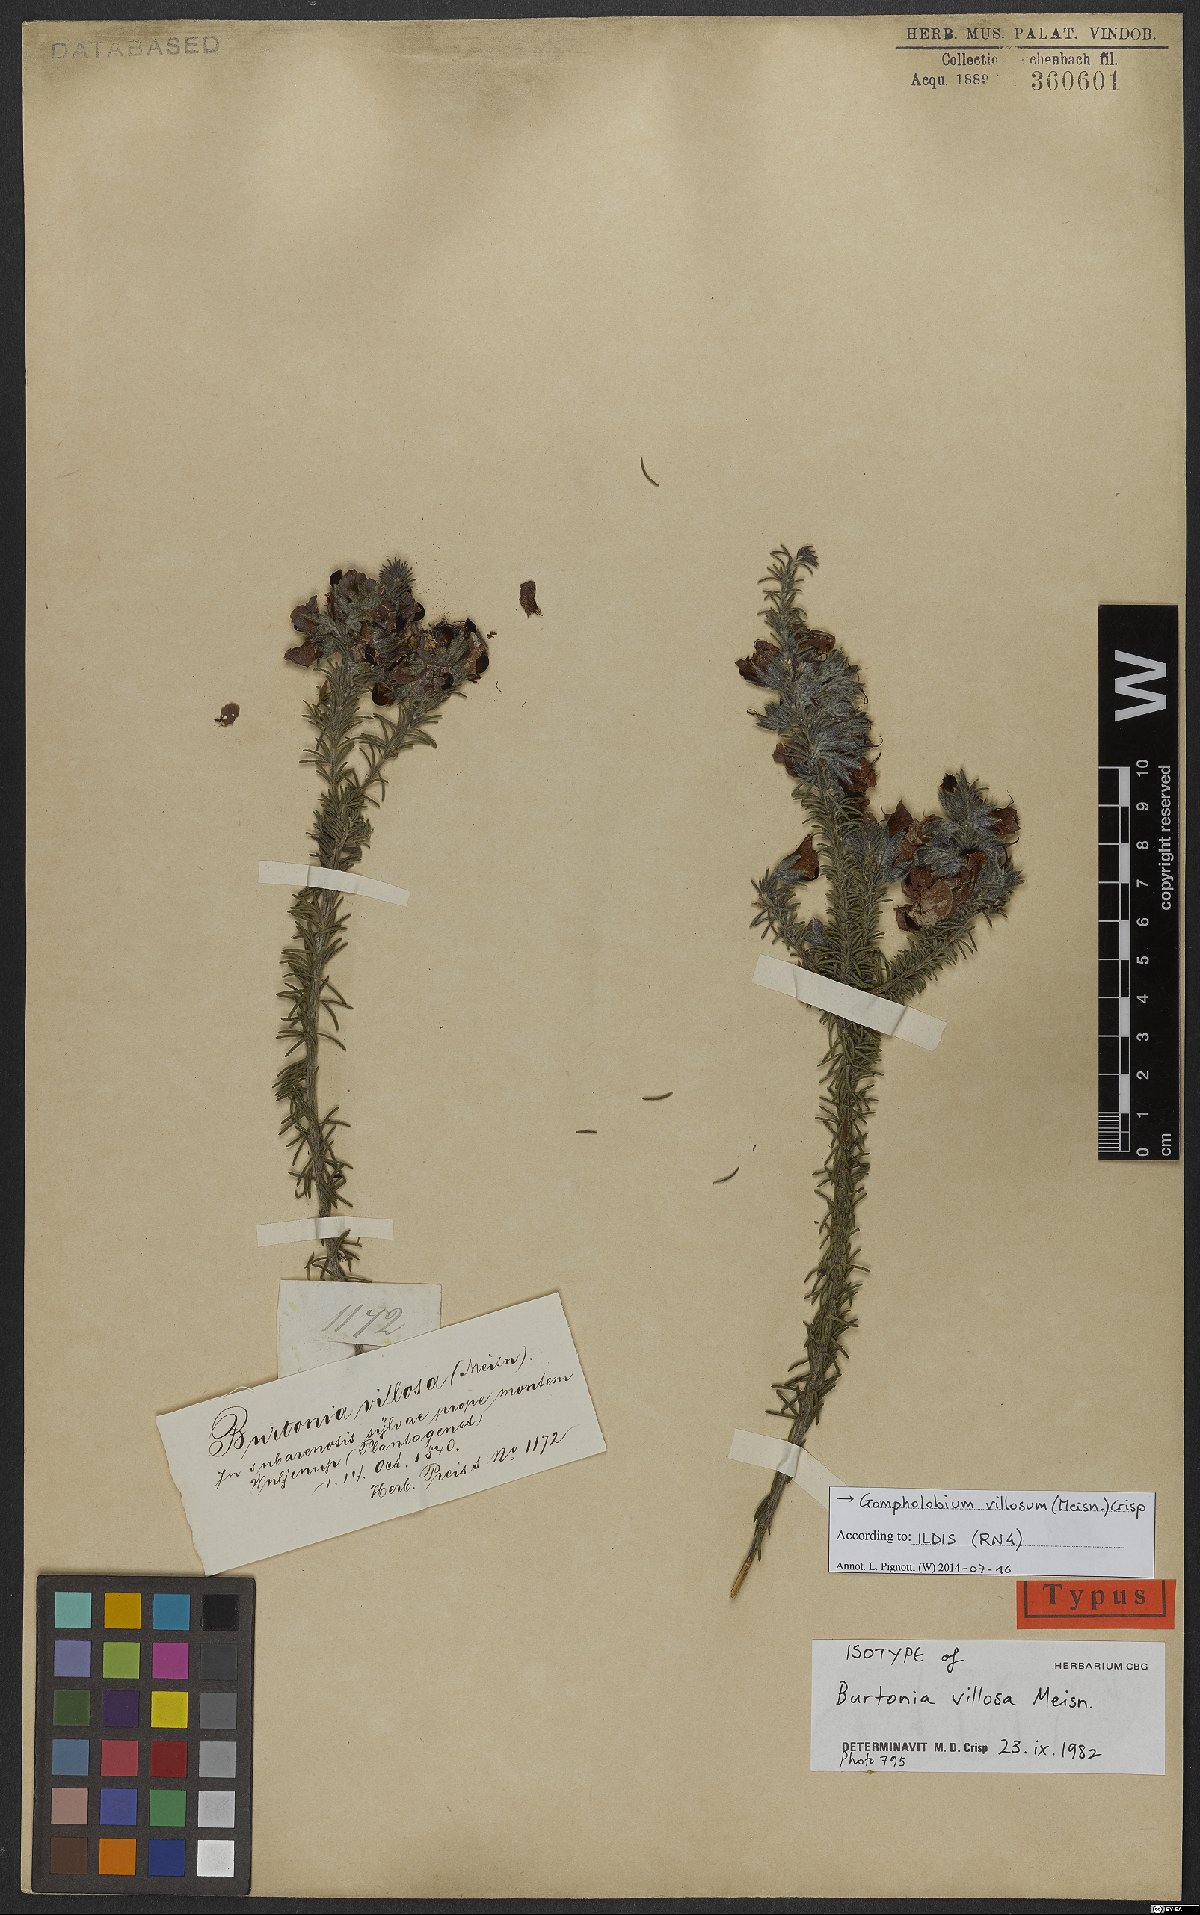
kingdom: Plantae
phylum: Tracheophyta
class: Magnoliopsida
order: Fabales
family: Fabaceae
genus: Gompholobium
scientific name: Gompholobium villosum
